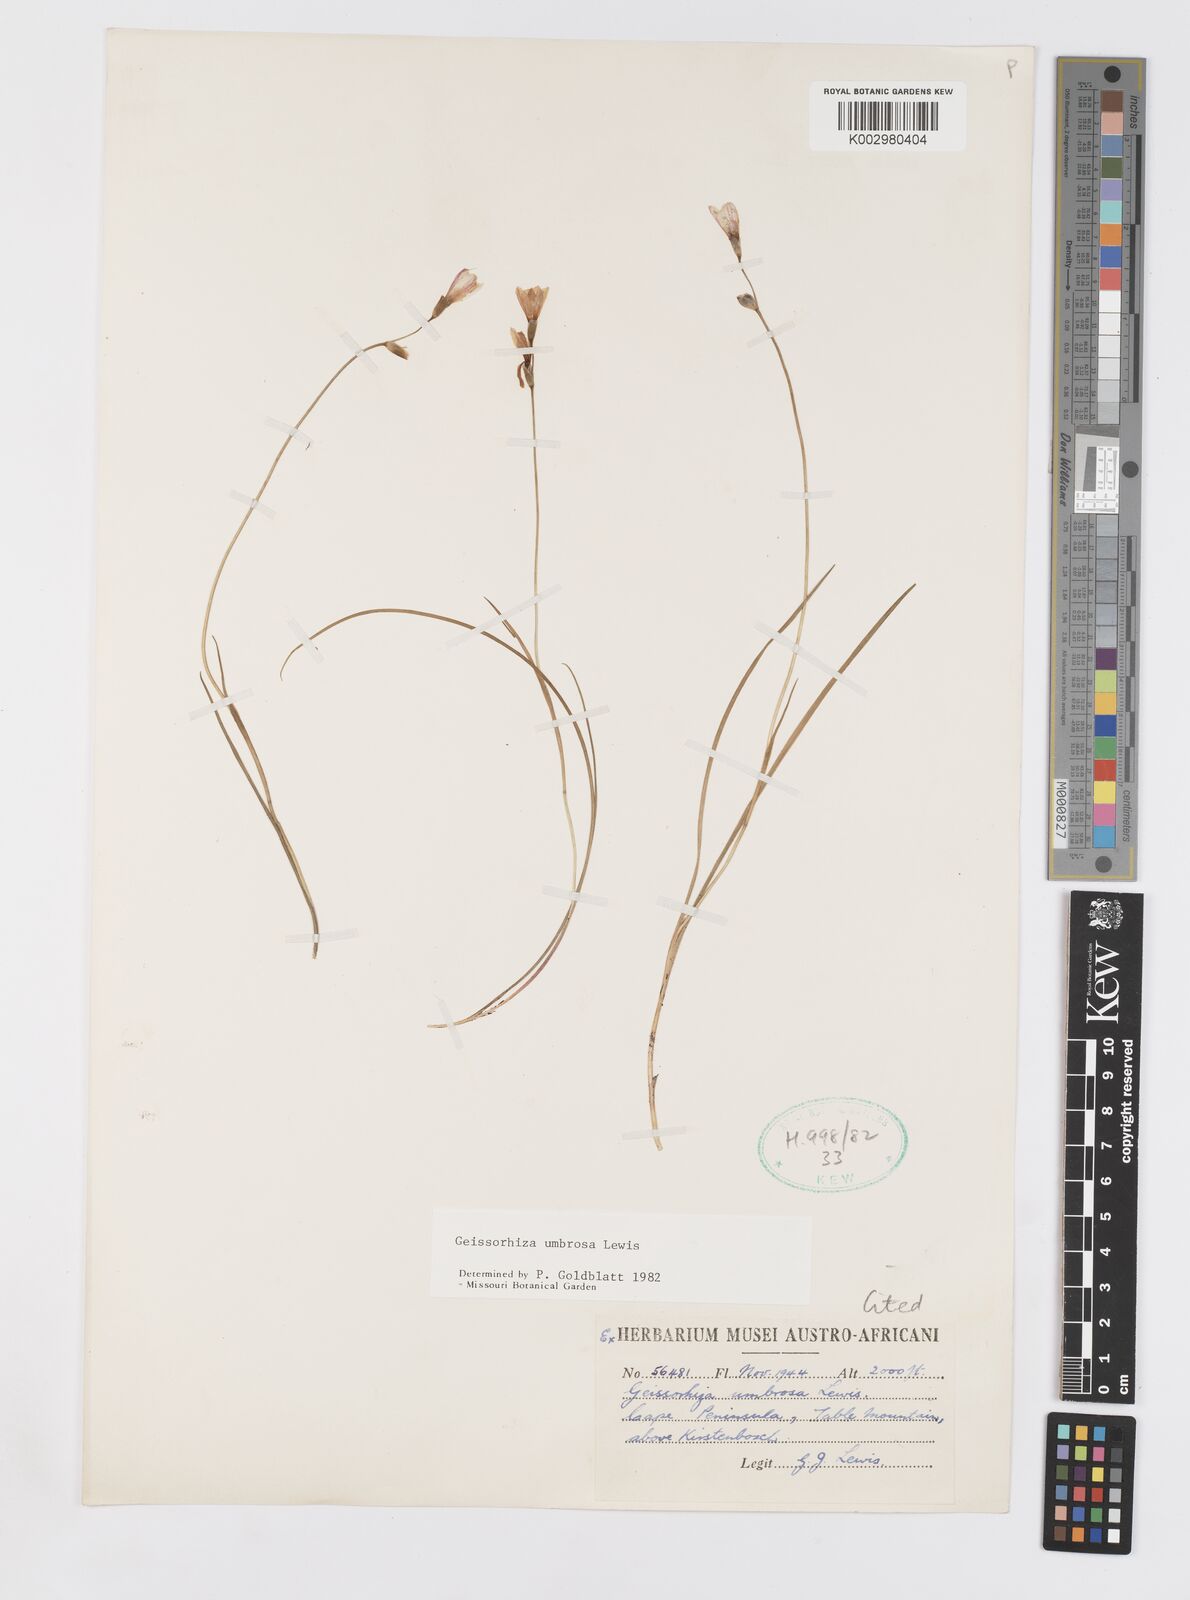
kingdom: Plantae
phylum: Tracheophyta
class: Liliopsida
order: Asparagales
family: Iridaceae
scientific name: Iridaceae
